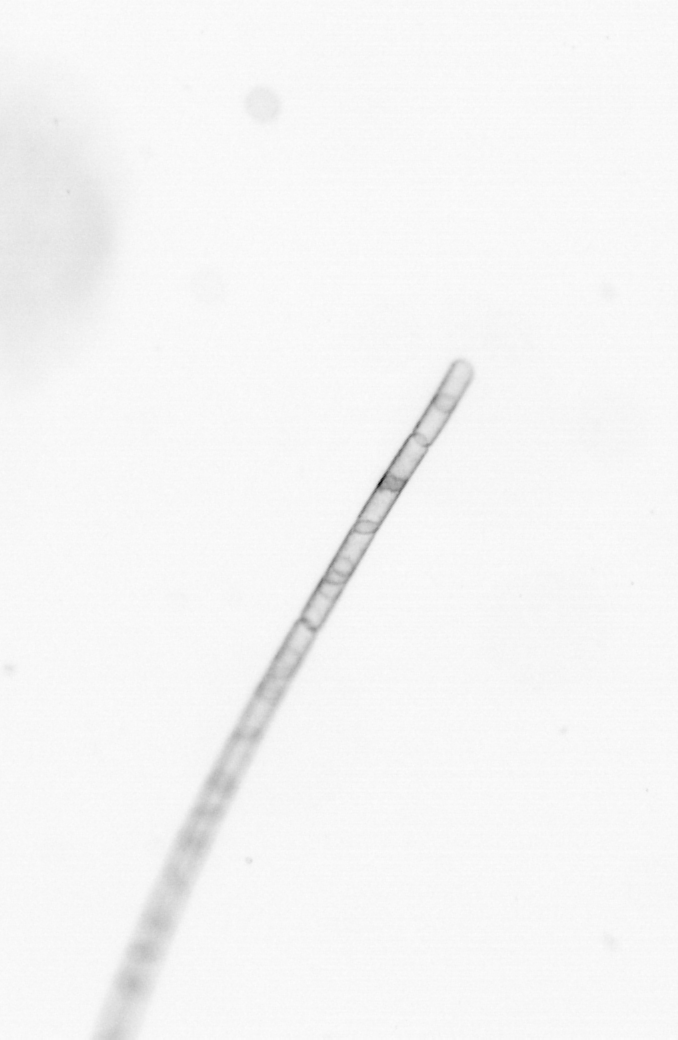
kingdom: Chromista
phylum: Ochrophyta
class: Bacillariophyceae
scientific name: Bacillariophyceae
